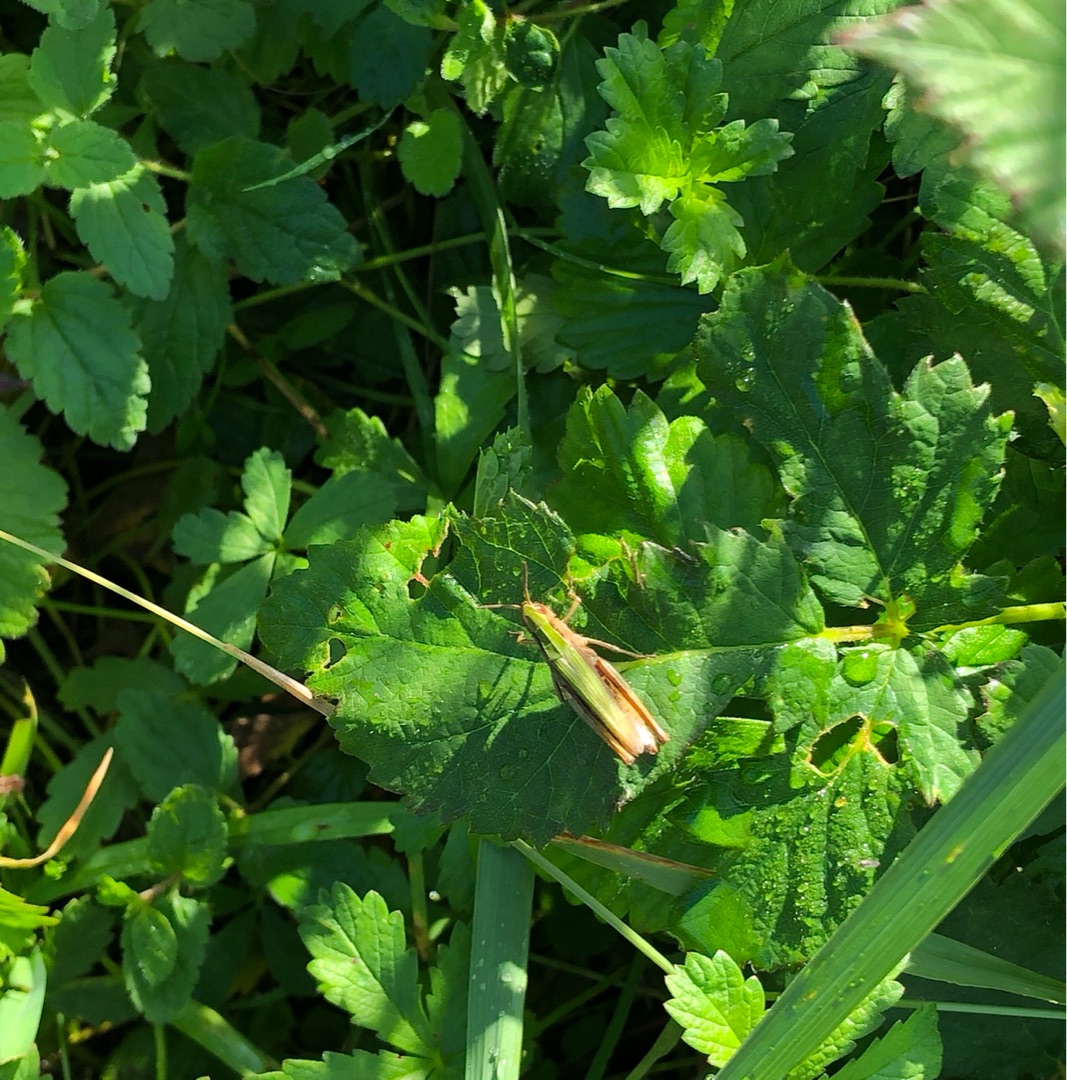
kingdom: Animalia
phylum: Arthropoda
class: Insecta
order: Orthoptera
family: Acrididae
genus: Chorthippus
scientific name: Chorthippus dorsatus
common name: Stor enggræshoppe
